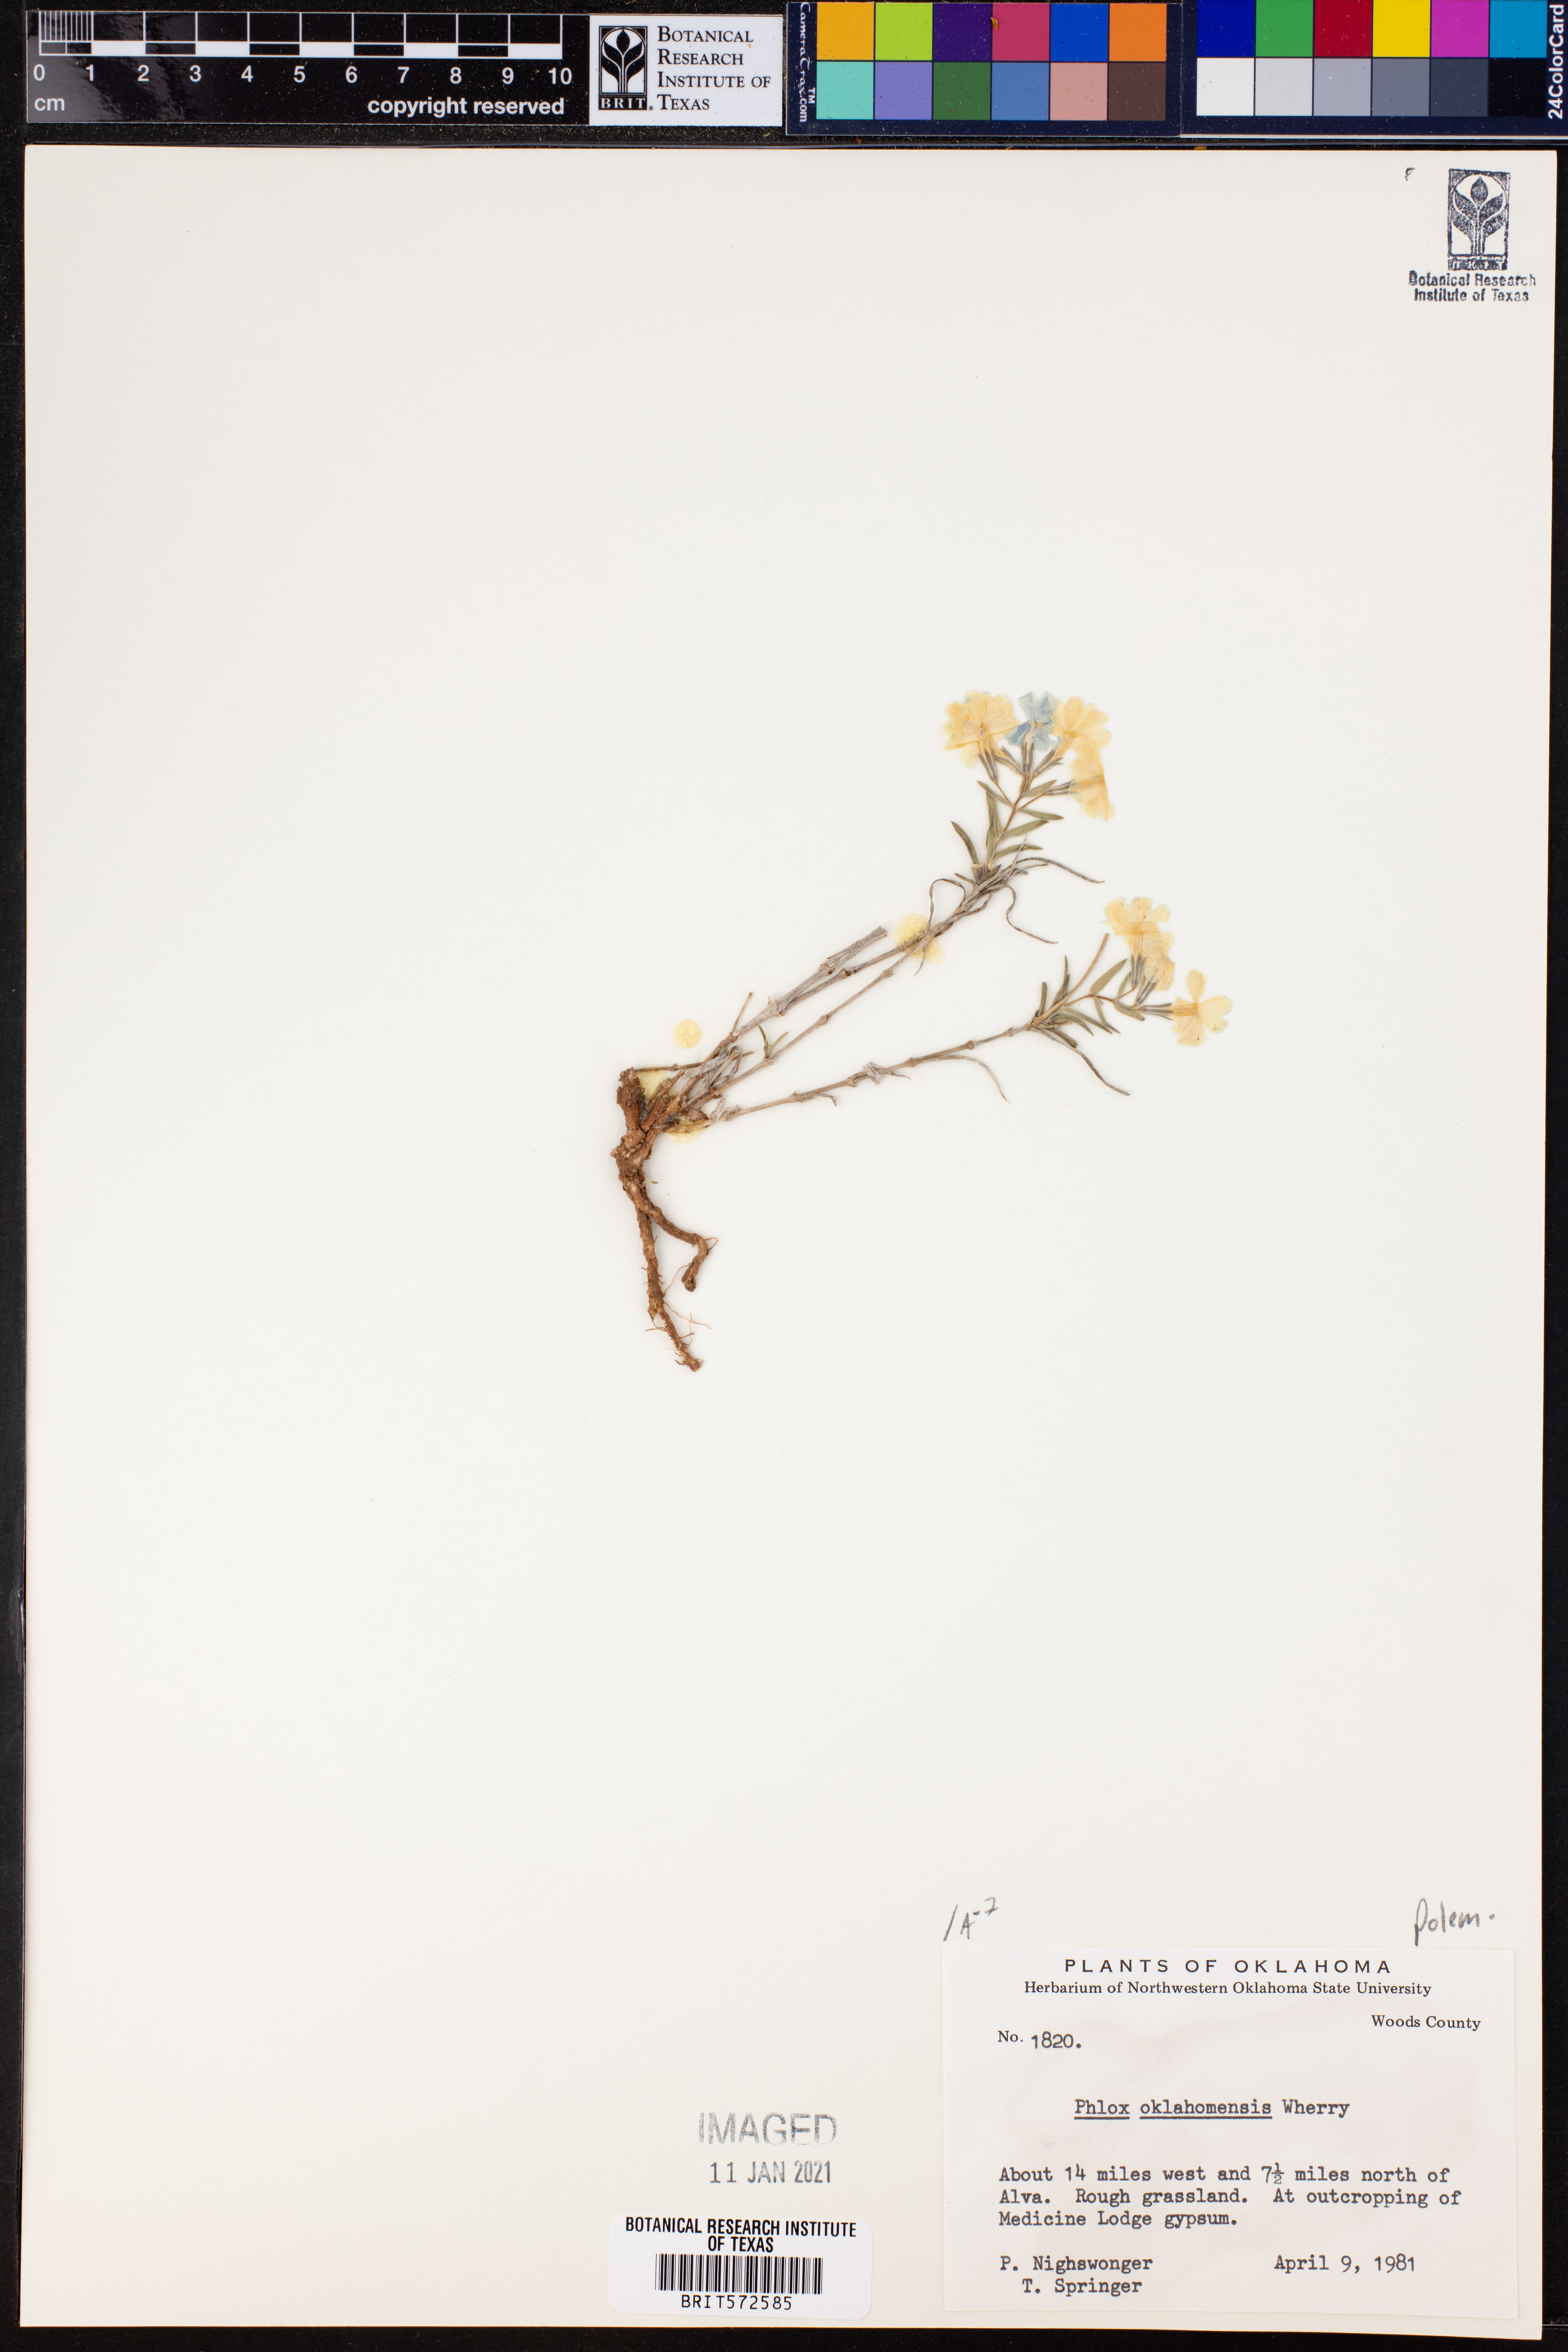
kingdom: Plantae
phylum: Tracheophyta
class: Magnoliopsida
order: Ericales
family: Polemoniaceae
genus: Phlox
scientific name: Phlox oklahomensis
